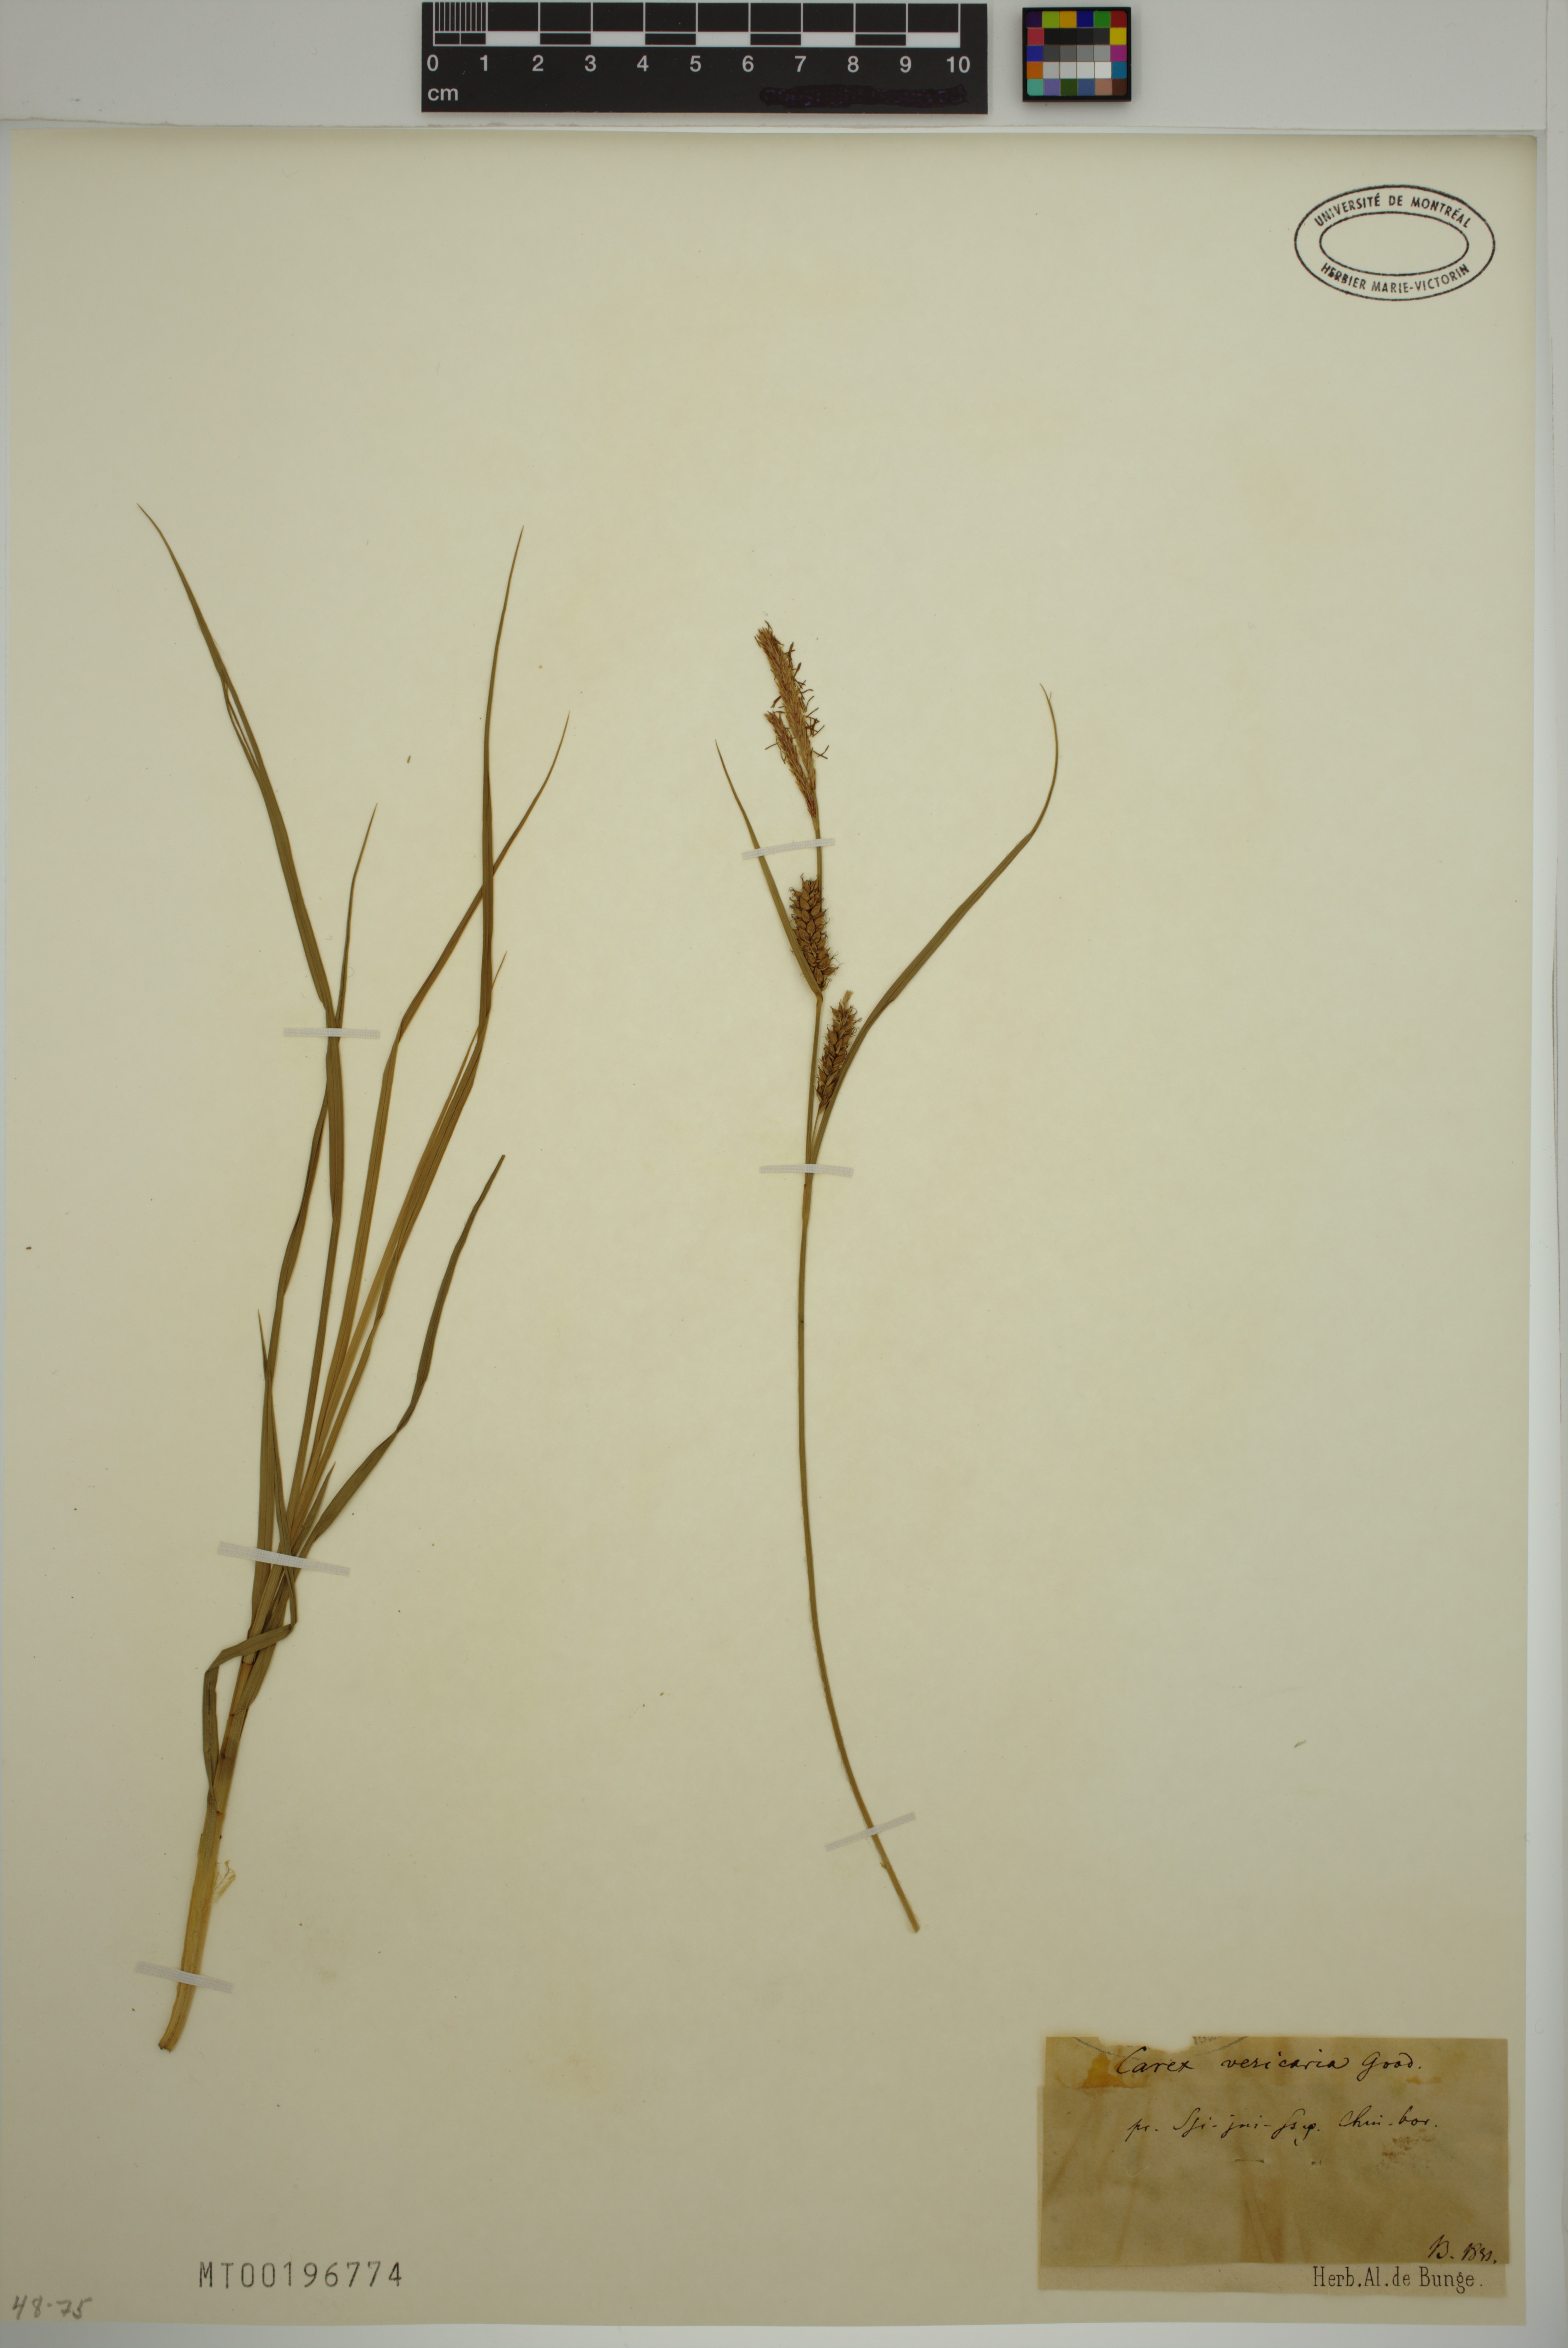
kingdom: Plantae
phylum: Tracheophyta
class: Liliopsida
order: Poales
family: Cyperaceae
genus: Carex
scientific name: Carex vesicaria
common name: Bladder-sedge
